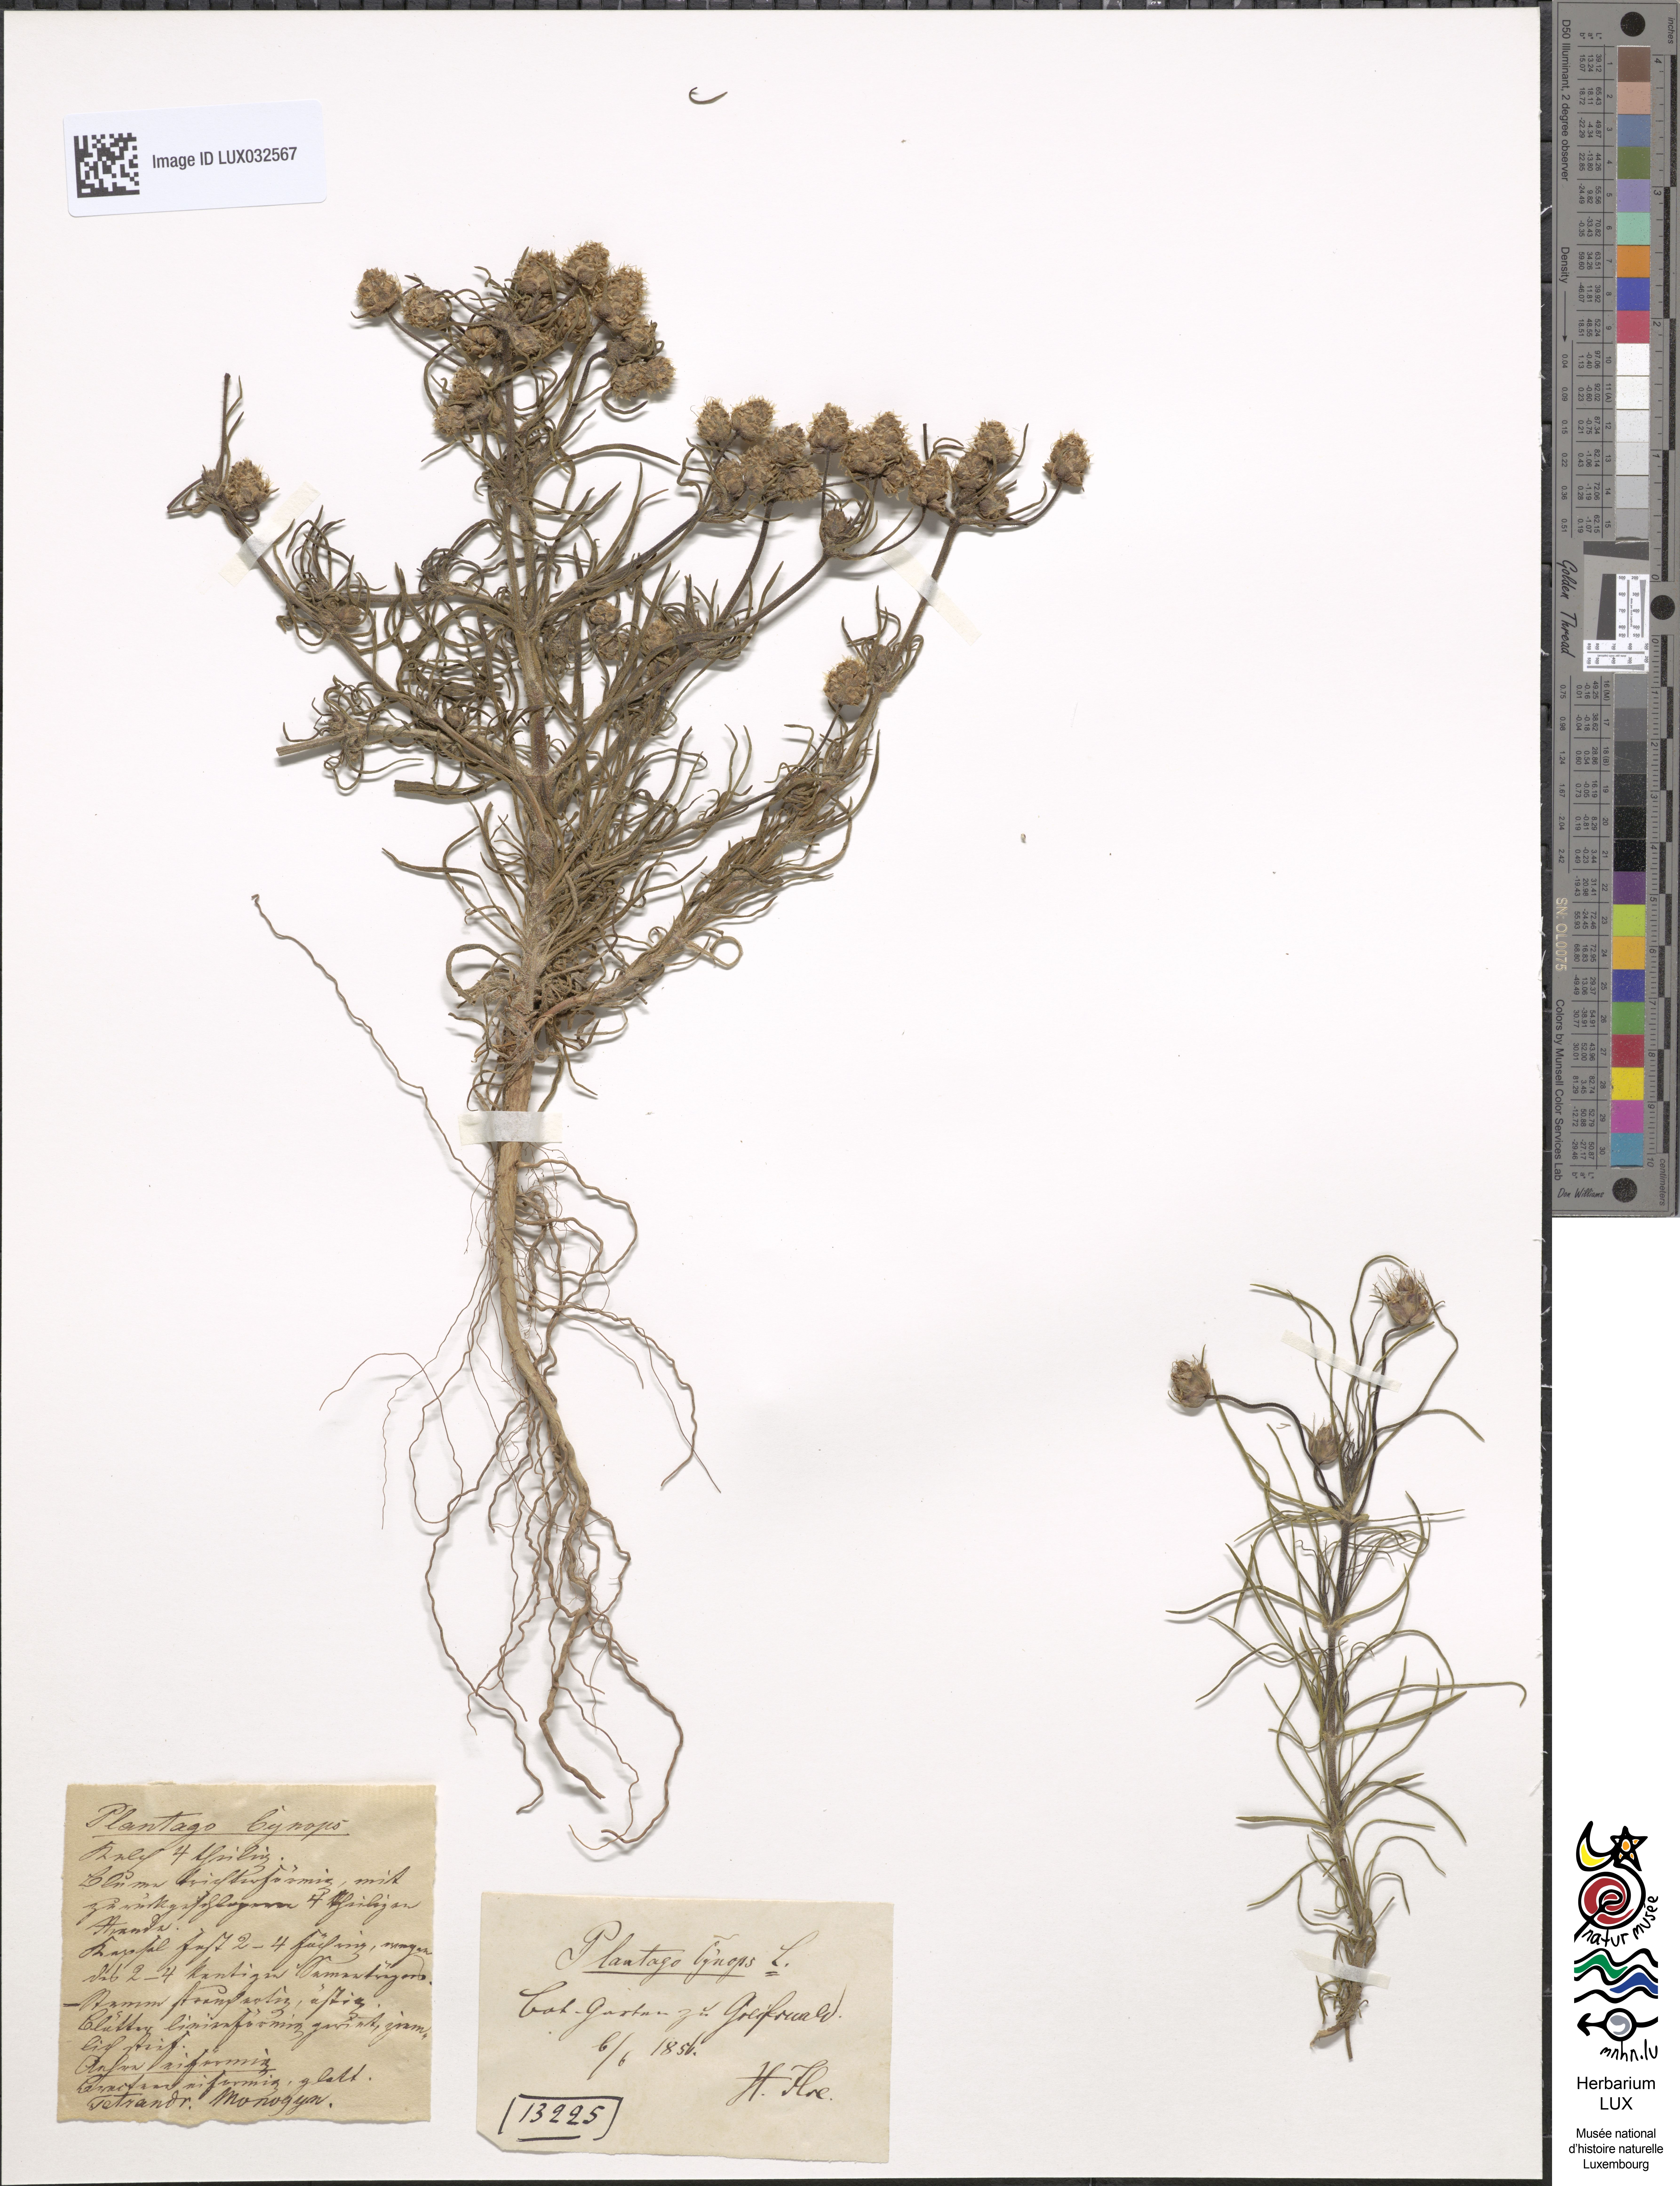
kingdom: Plantae
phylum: Tracheophyta
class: Magnoliopsida
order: Lamiales
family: Plantaginaceae
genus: Plantago
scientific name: Plantago sempervirens
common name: Shrubby plantain
